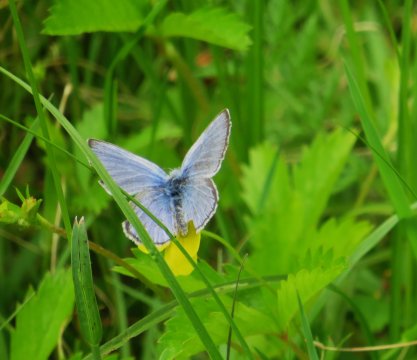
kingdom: Animalia
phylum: Arthropoda
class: Insecta
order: Lepidoptera
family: Lycaenidae
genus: Glaucopsyche
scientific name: Glaucopsyche lygdamus
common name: Silvery Blue
